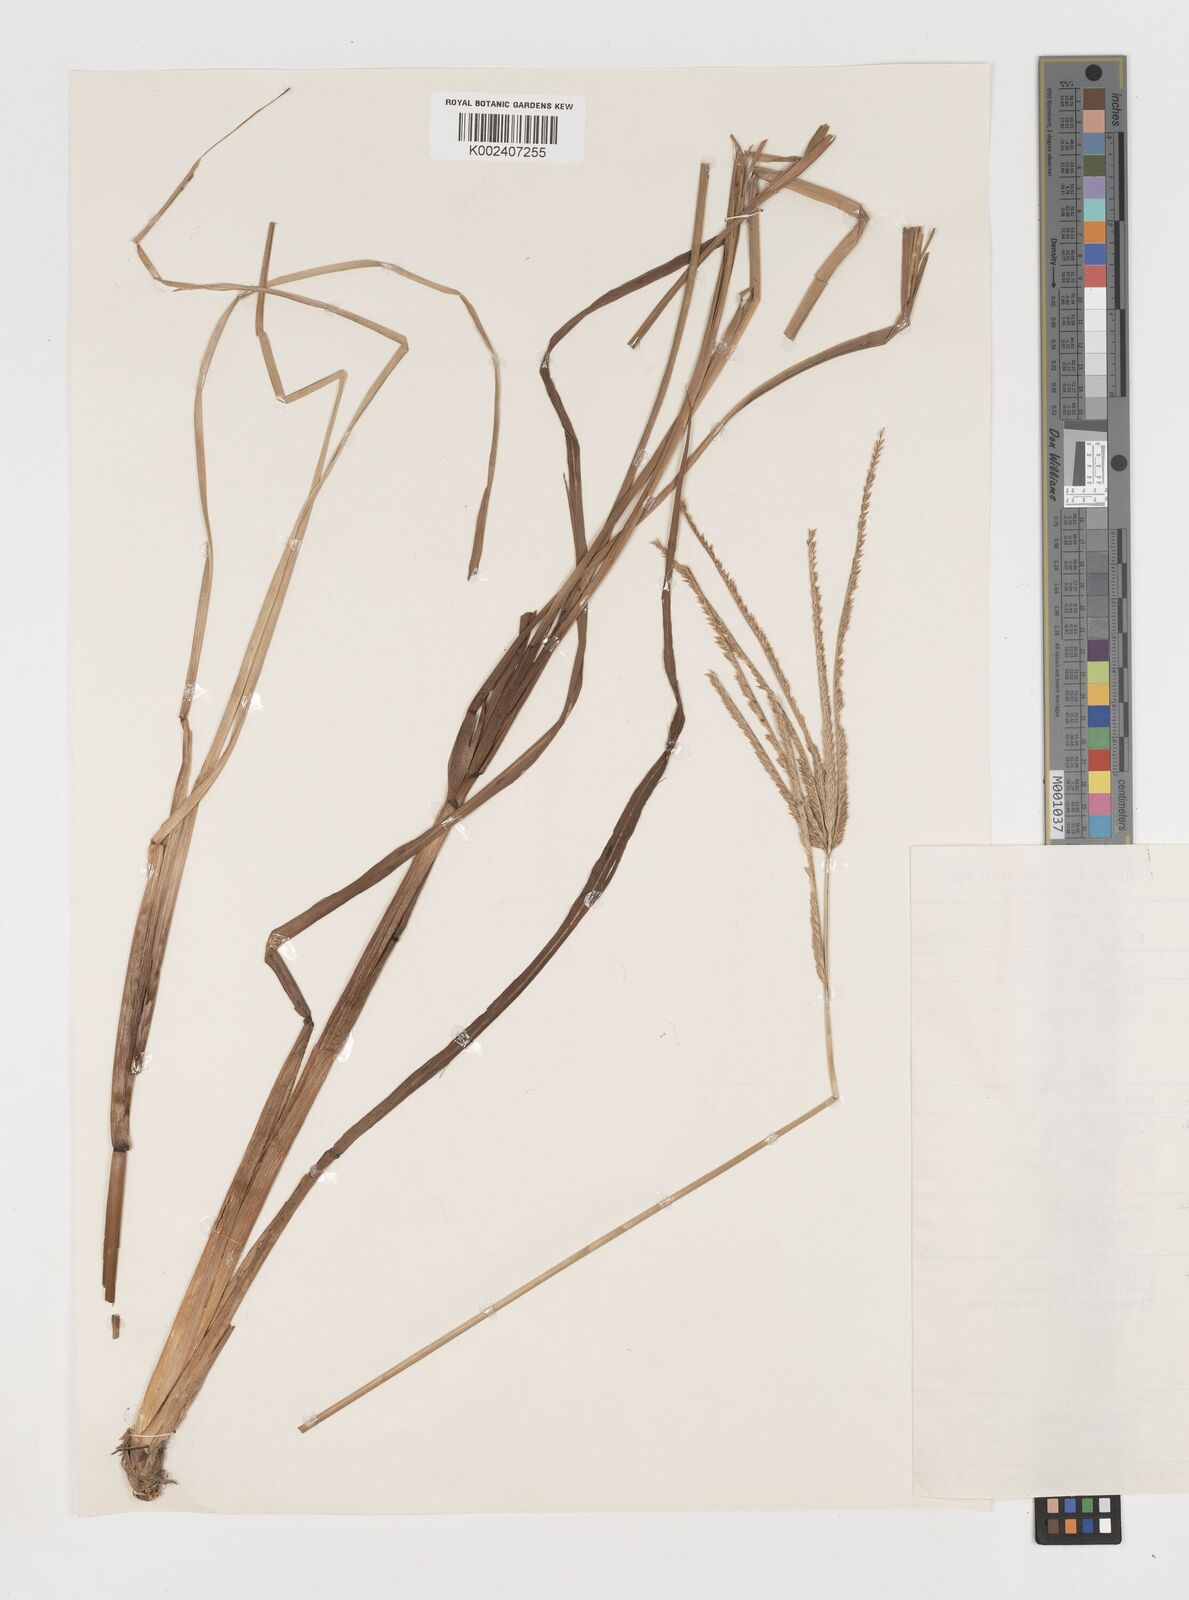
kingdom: Plantae
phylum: Tracheophyta
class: Liliopsida
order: Poales
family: Poaceae
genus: Eleusine
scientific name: Eleusine indica
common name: Yard-grass
